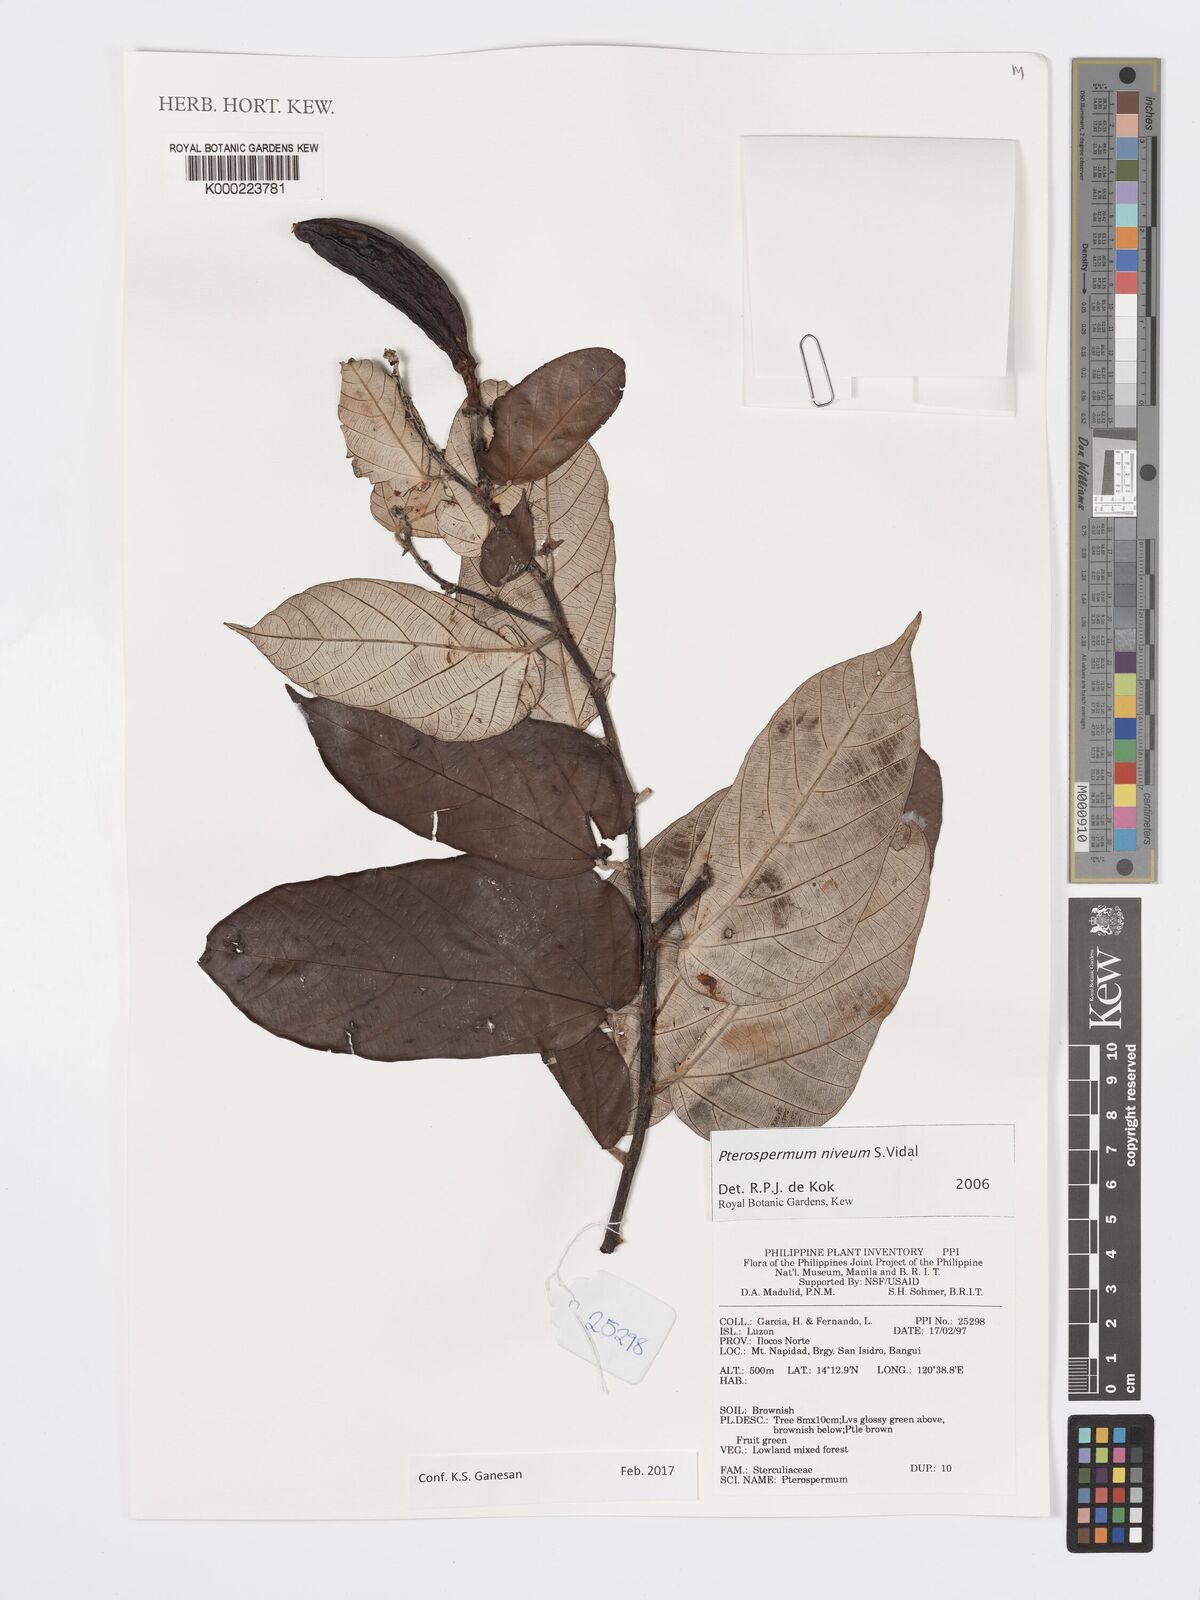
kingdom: Plantae
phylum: Tracheophyta
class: Magnoliopsida
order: Malvales
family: Malvaceae
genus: Pterospermum
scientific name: Pterospermum niveum
